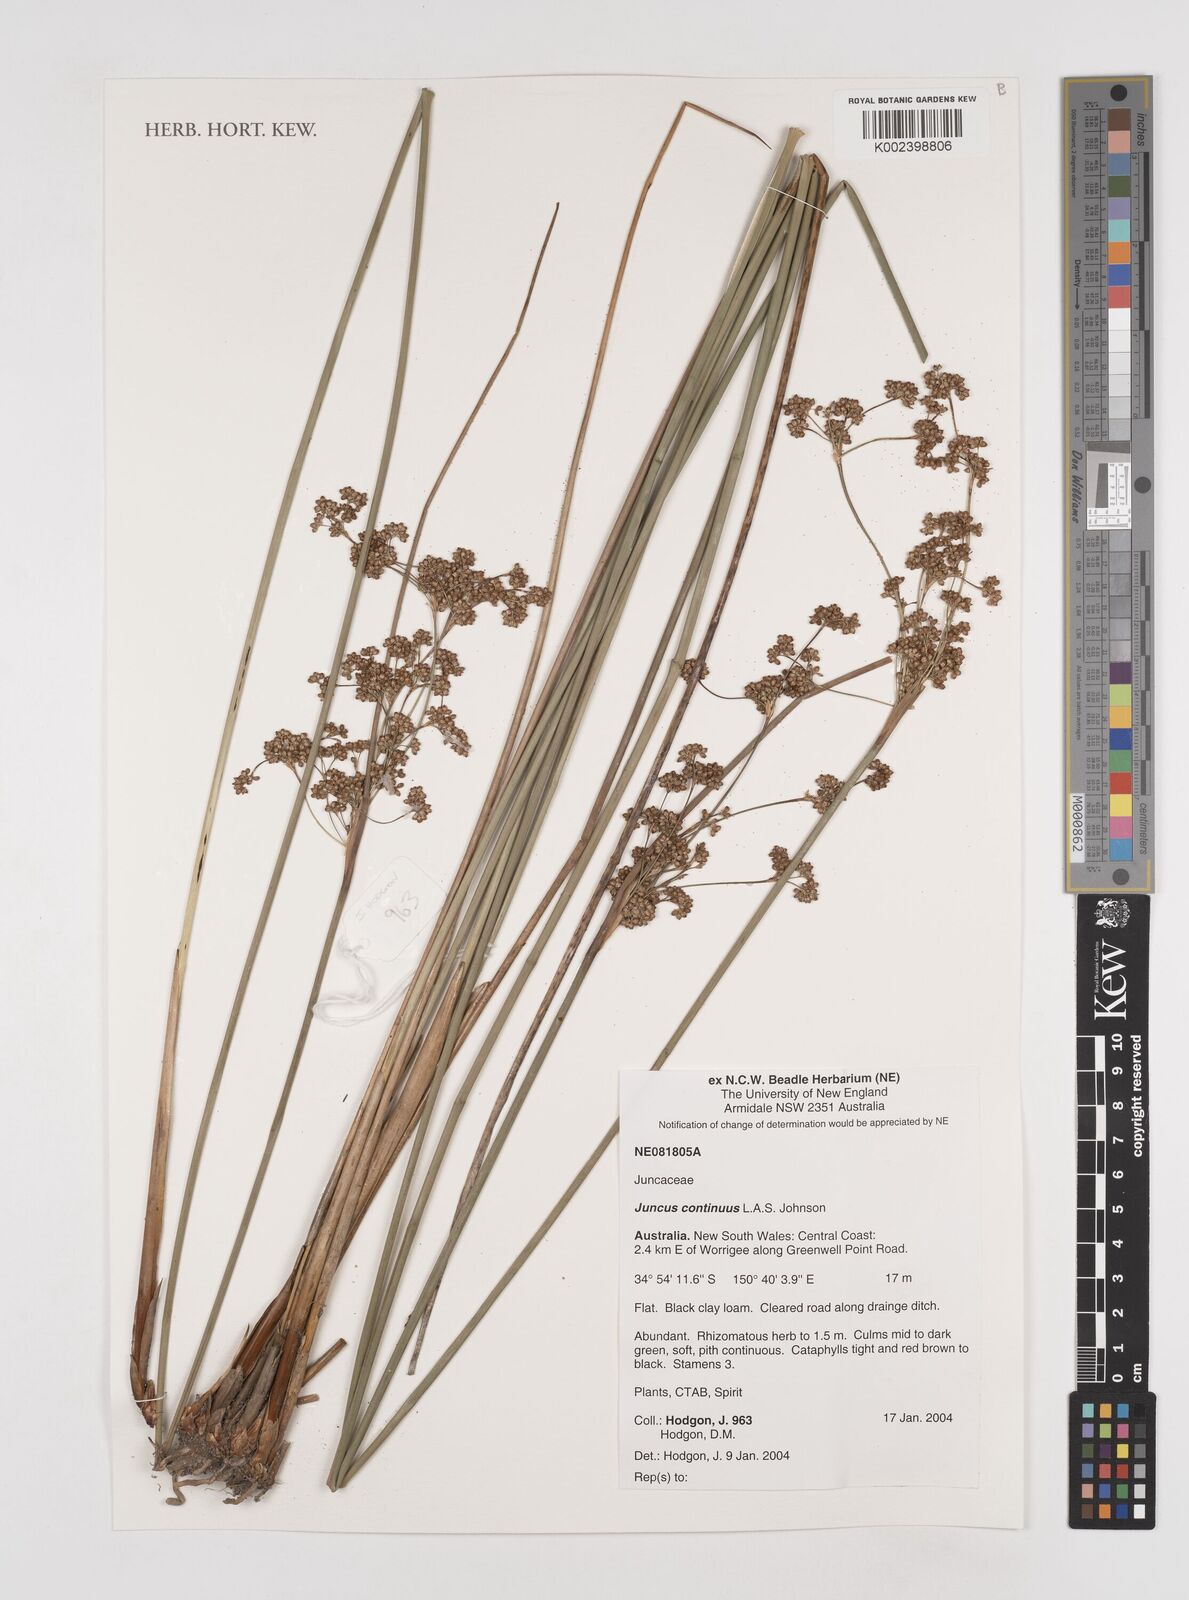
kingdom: Plantae
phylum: Tracheophyta
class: Liliopsida
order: Poales
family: Juncaceae
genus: Juncus
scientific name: Juncus continuus
